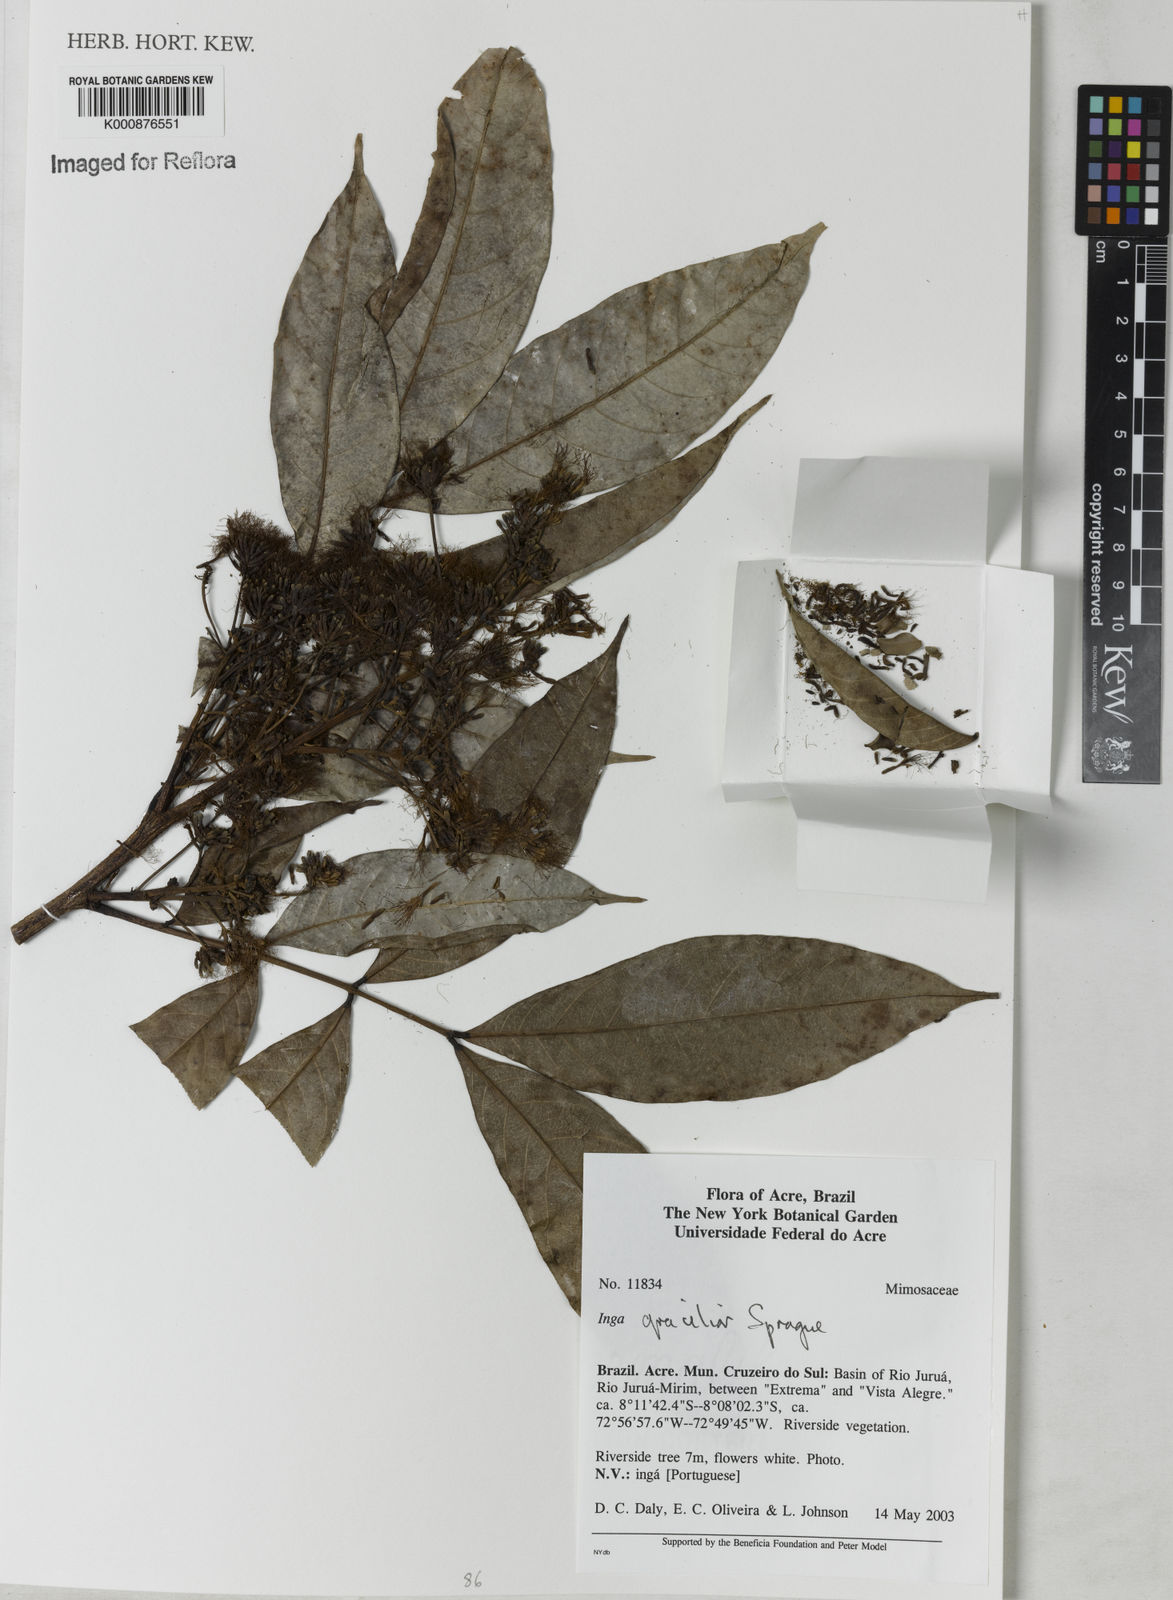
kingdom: Plantae
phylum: Tracheophyta
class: Magnoliopsida
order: Fabales
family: Fabaceae
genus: Inga
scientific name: Inga gracilior
